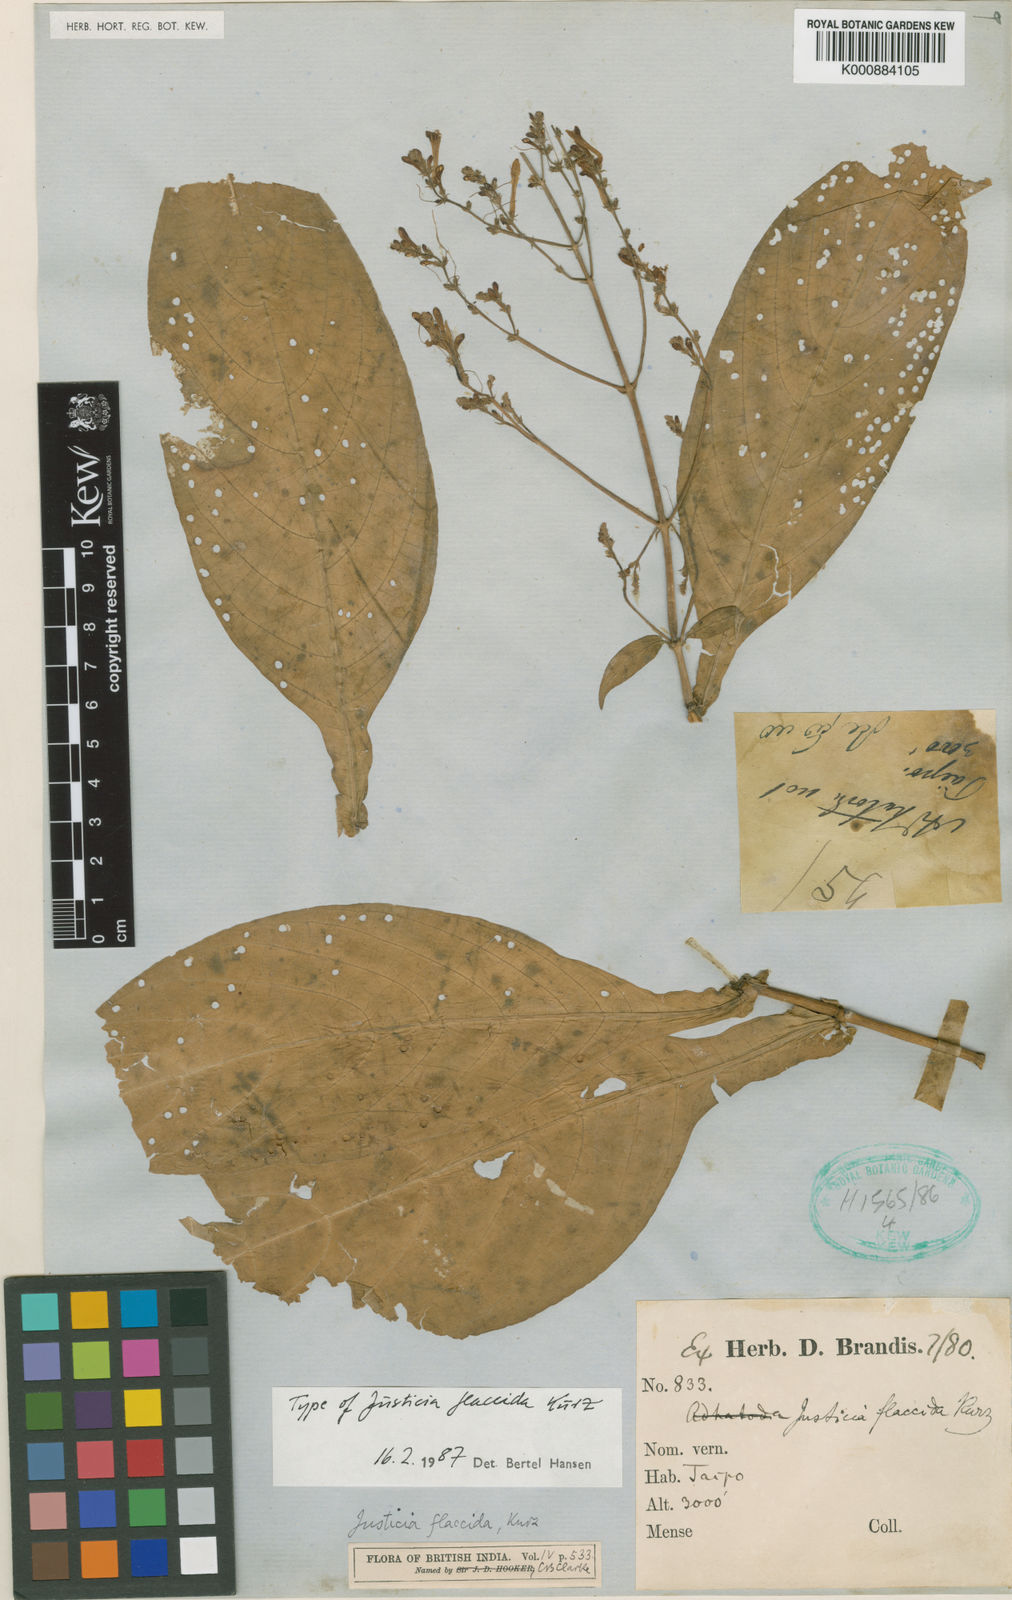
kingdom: Plantae
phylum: Tracheophyta
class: Magnoliopsida
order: Lamiales
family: Acanthaceae
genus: Justicia
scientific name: Justicia flaccida
